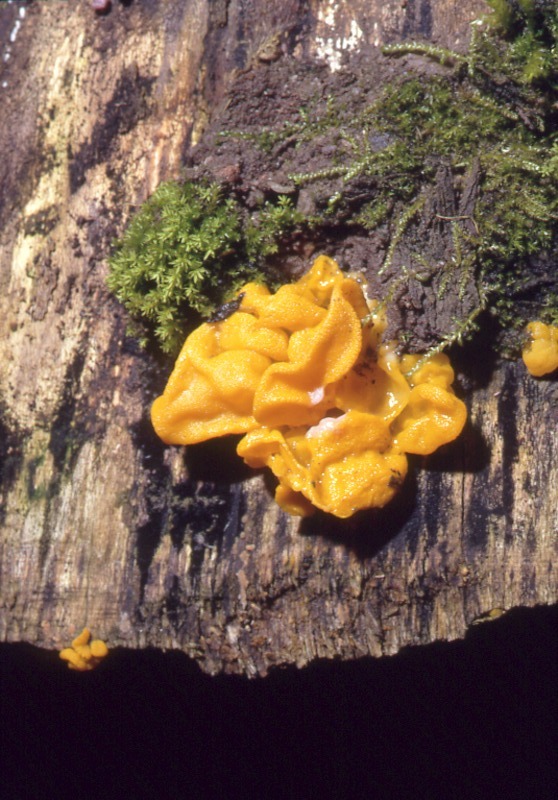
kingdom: Fungi
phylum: Basidiomycota
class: Tremellomycetes
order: Tremellales
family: Tremellaceae
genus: Tremella
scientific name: Tremella mesenterica
